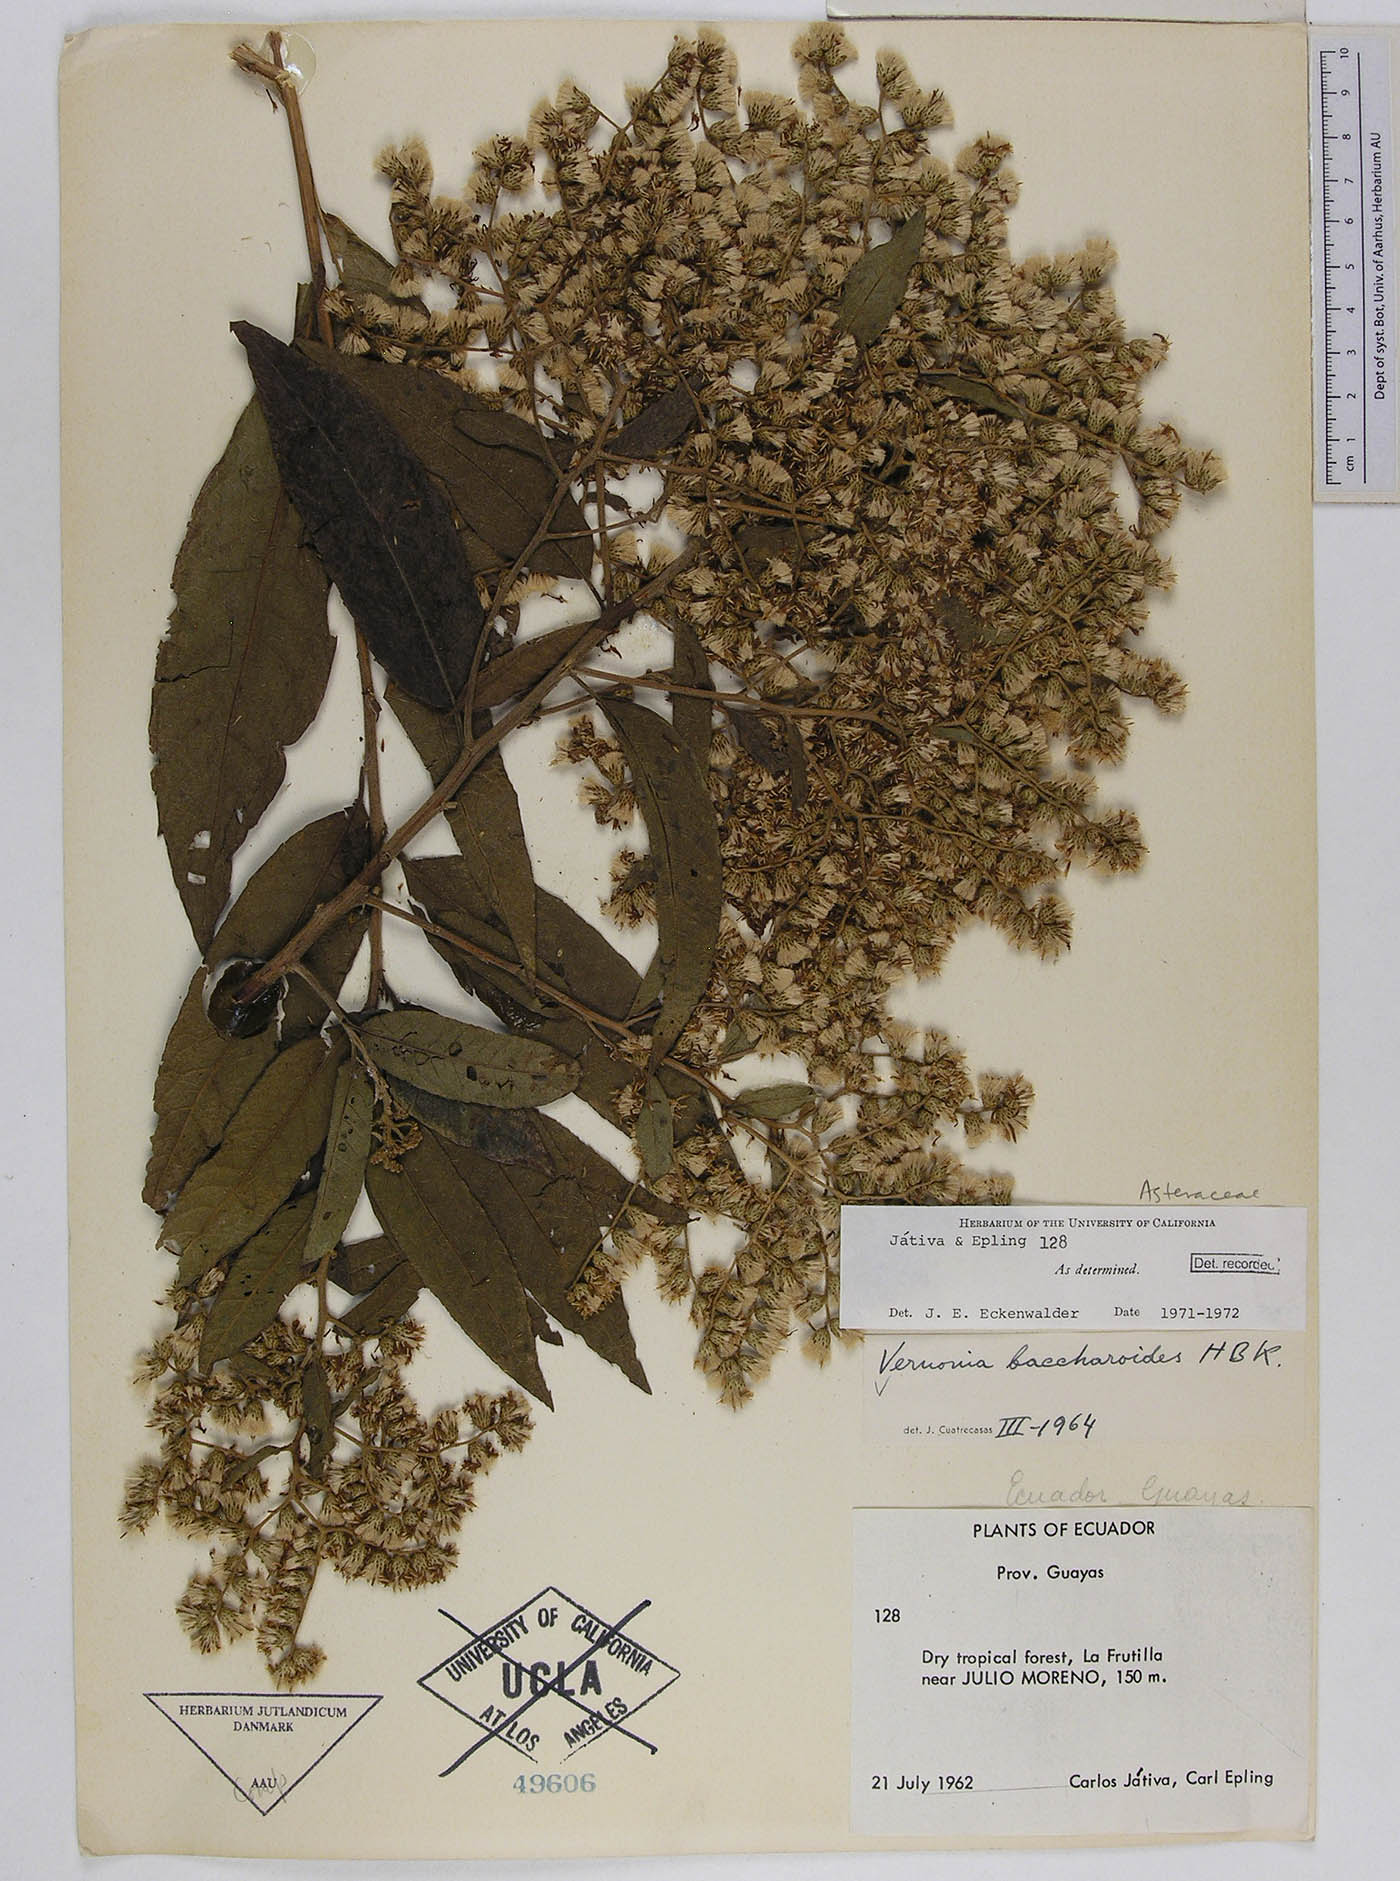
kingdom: Plantae
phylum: Tracheophyta
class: Magnoliopsida
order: Asterales
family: Asteraceae
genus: Vernonanthura
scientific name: Vernonanthura patens
